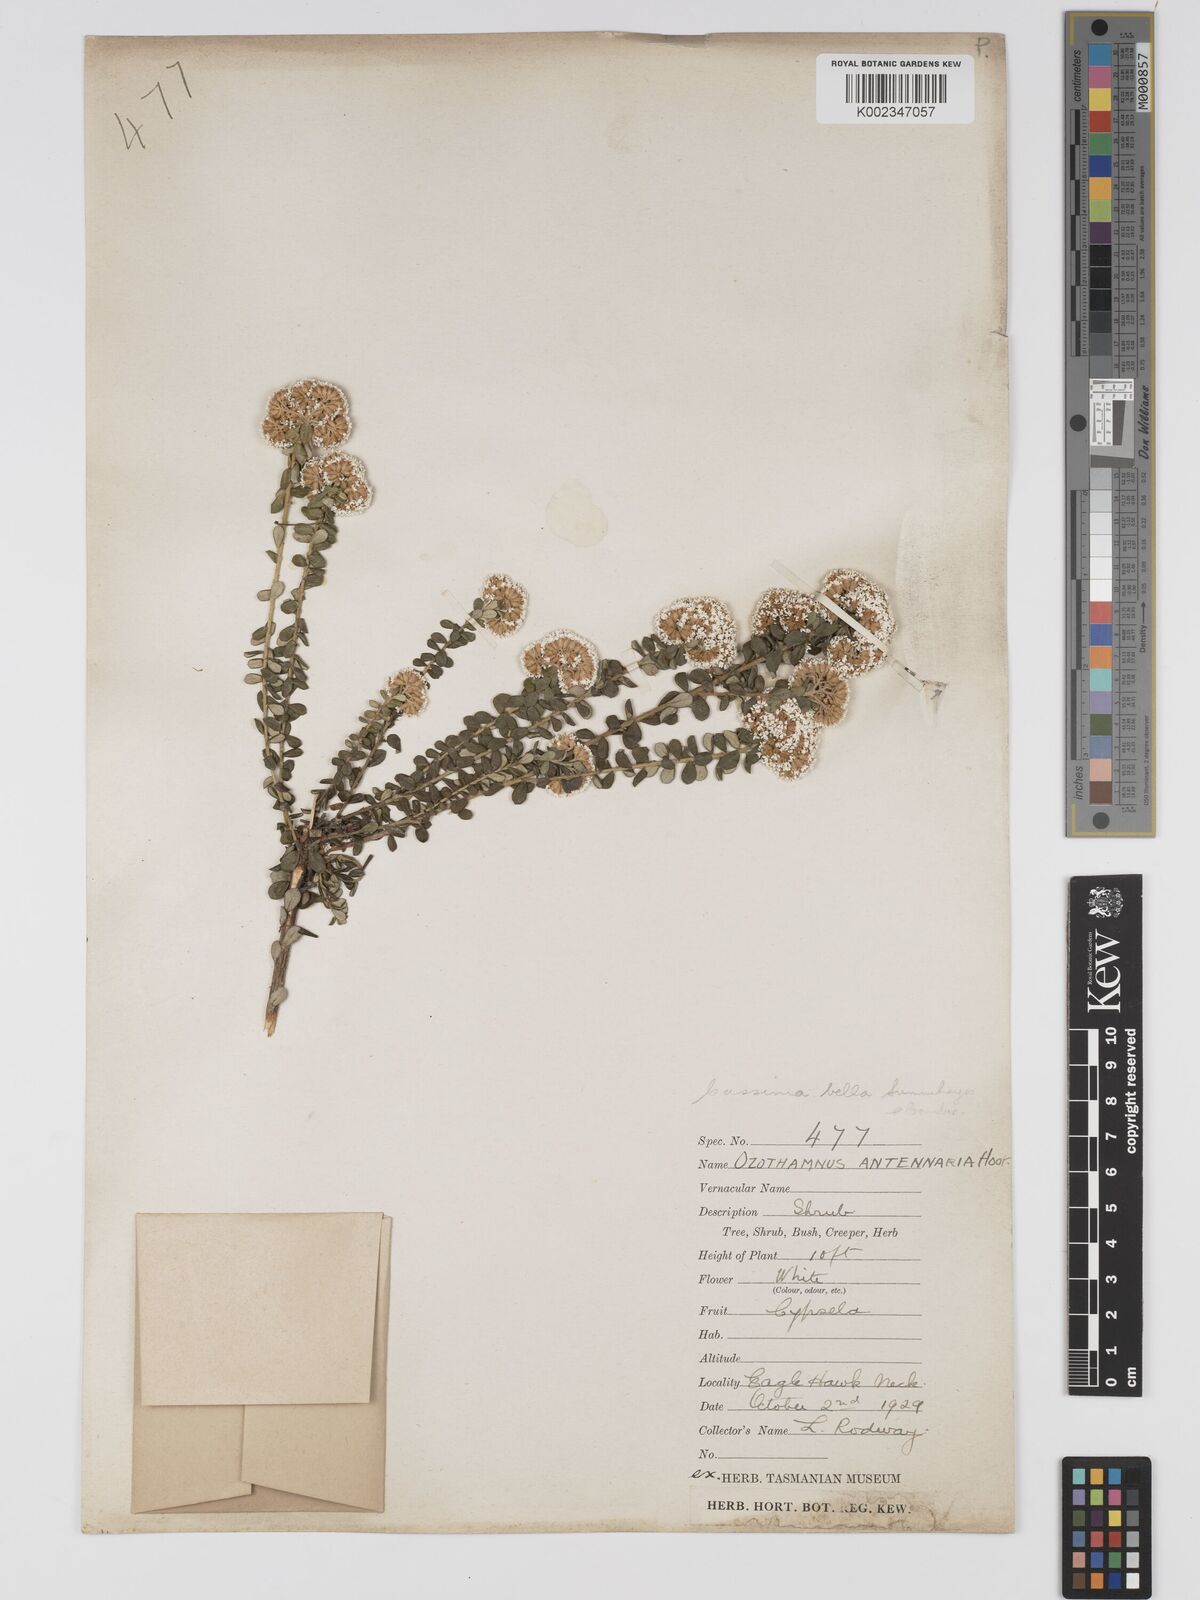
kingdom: Plantae
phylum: Tracheophyta
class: Magnoliopsida
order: Asterales
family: Asteraceae
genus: Odixia
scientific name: Odixia angusta
